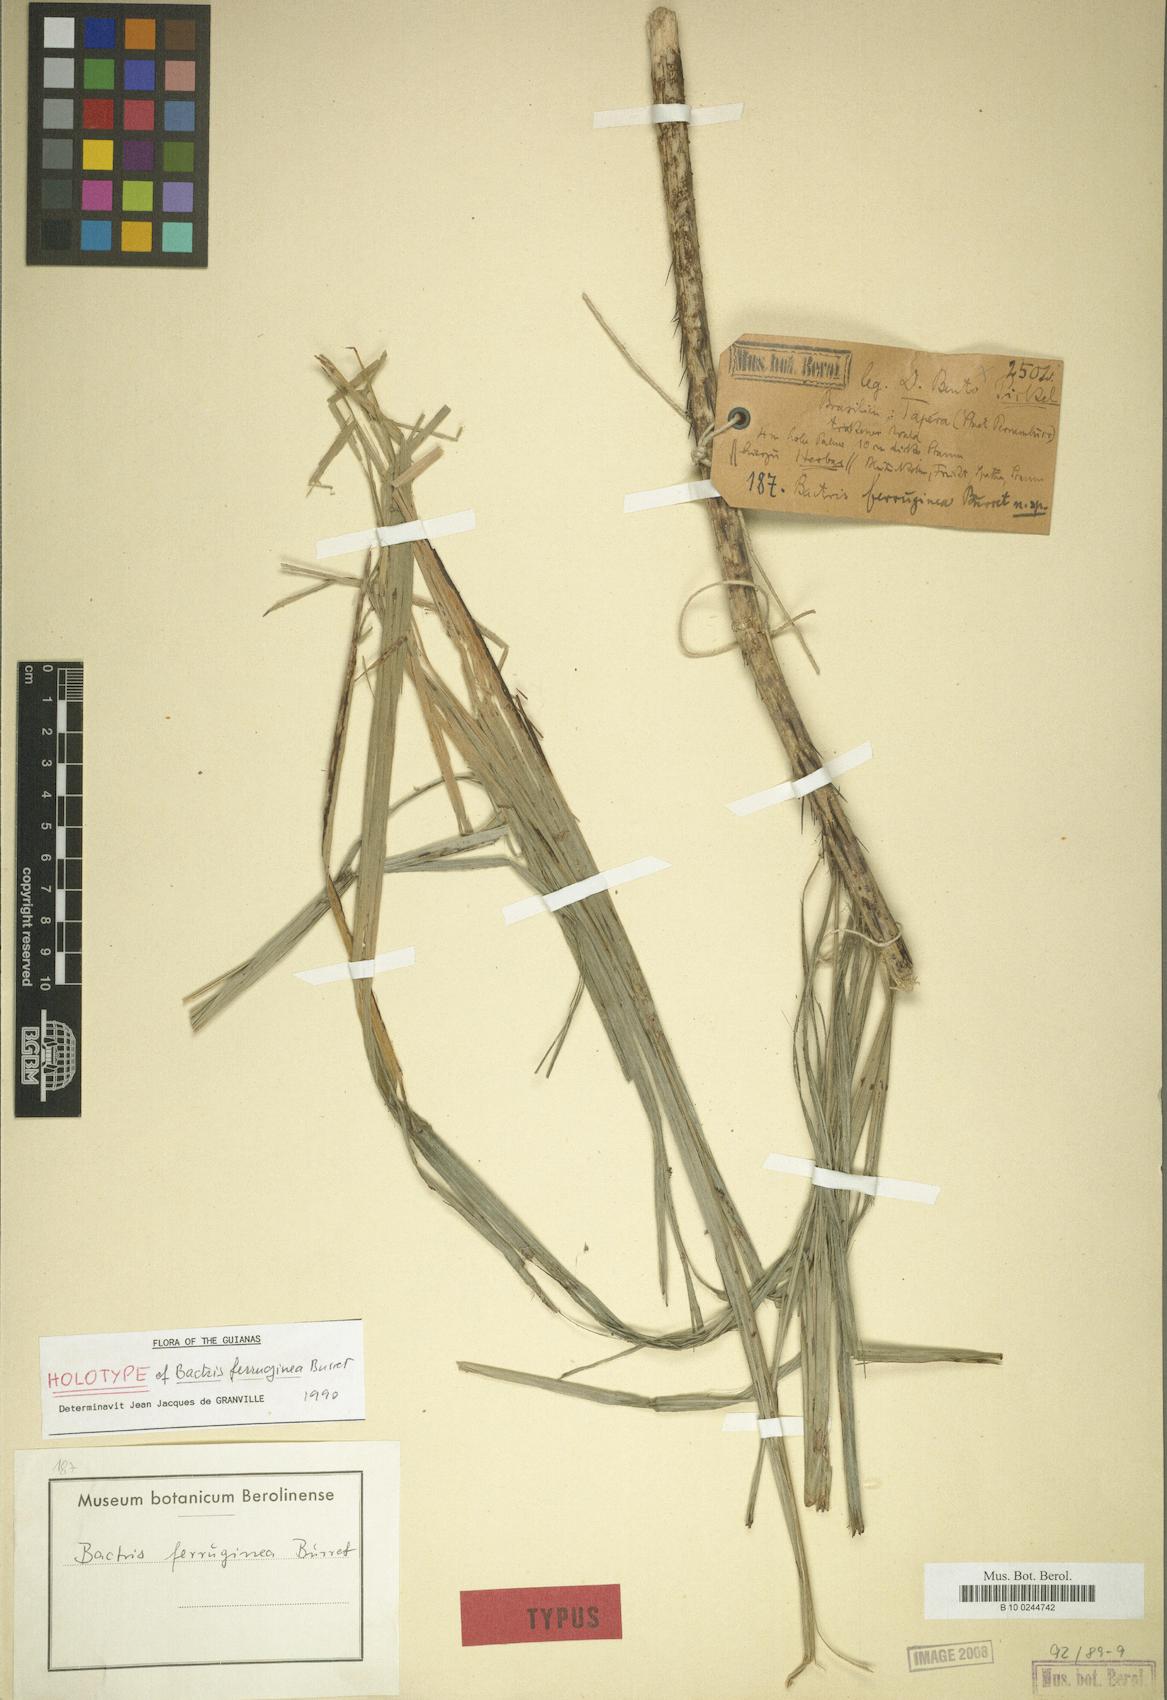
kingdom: Plantae
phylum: Tracheophyta
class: Liliopsida
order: Arecales
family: Arecaceae
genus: Bactris
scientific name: Bactris ferruginea
